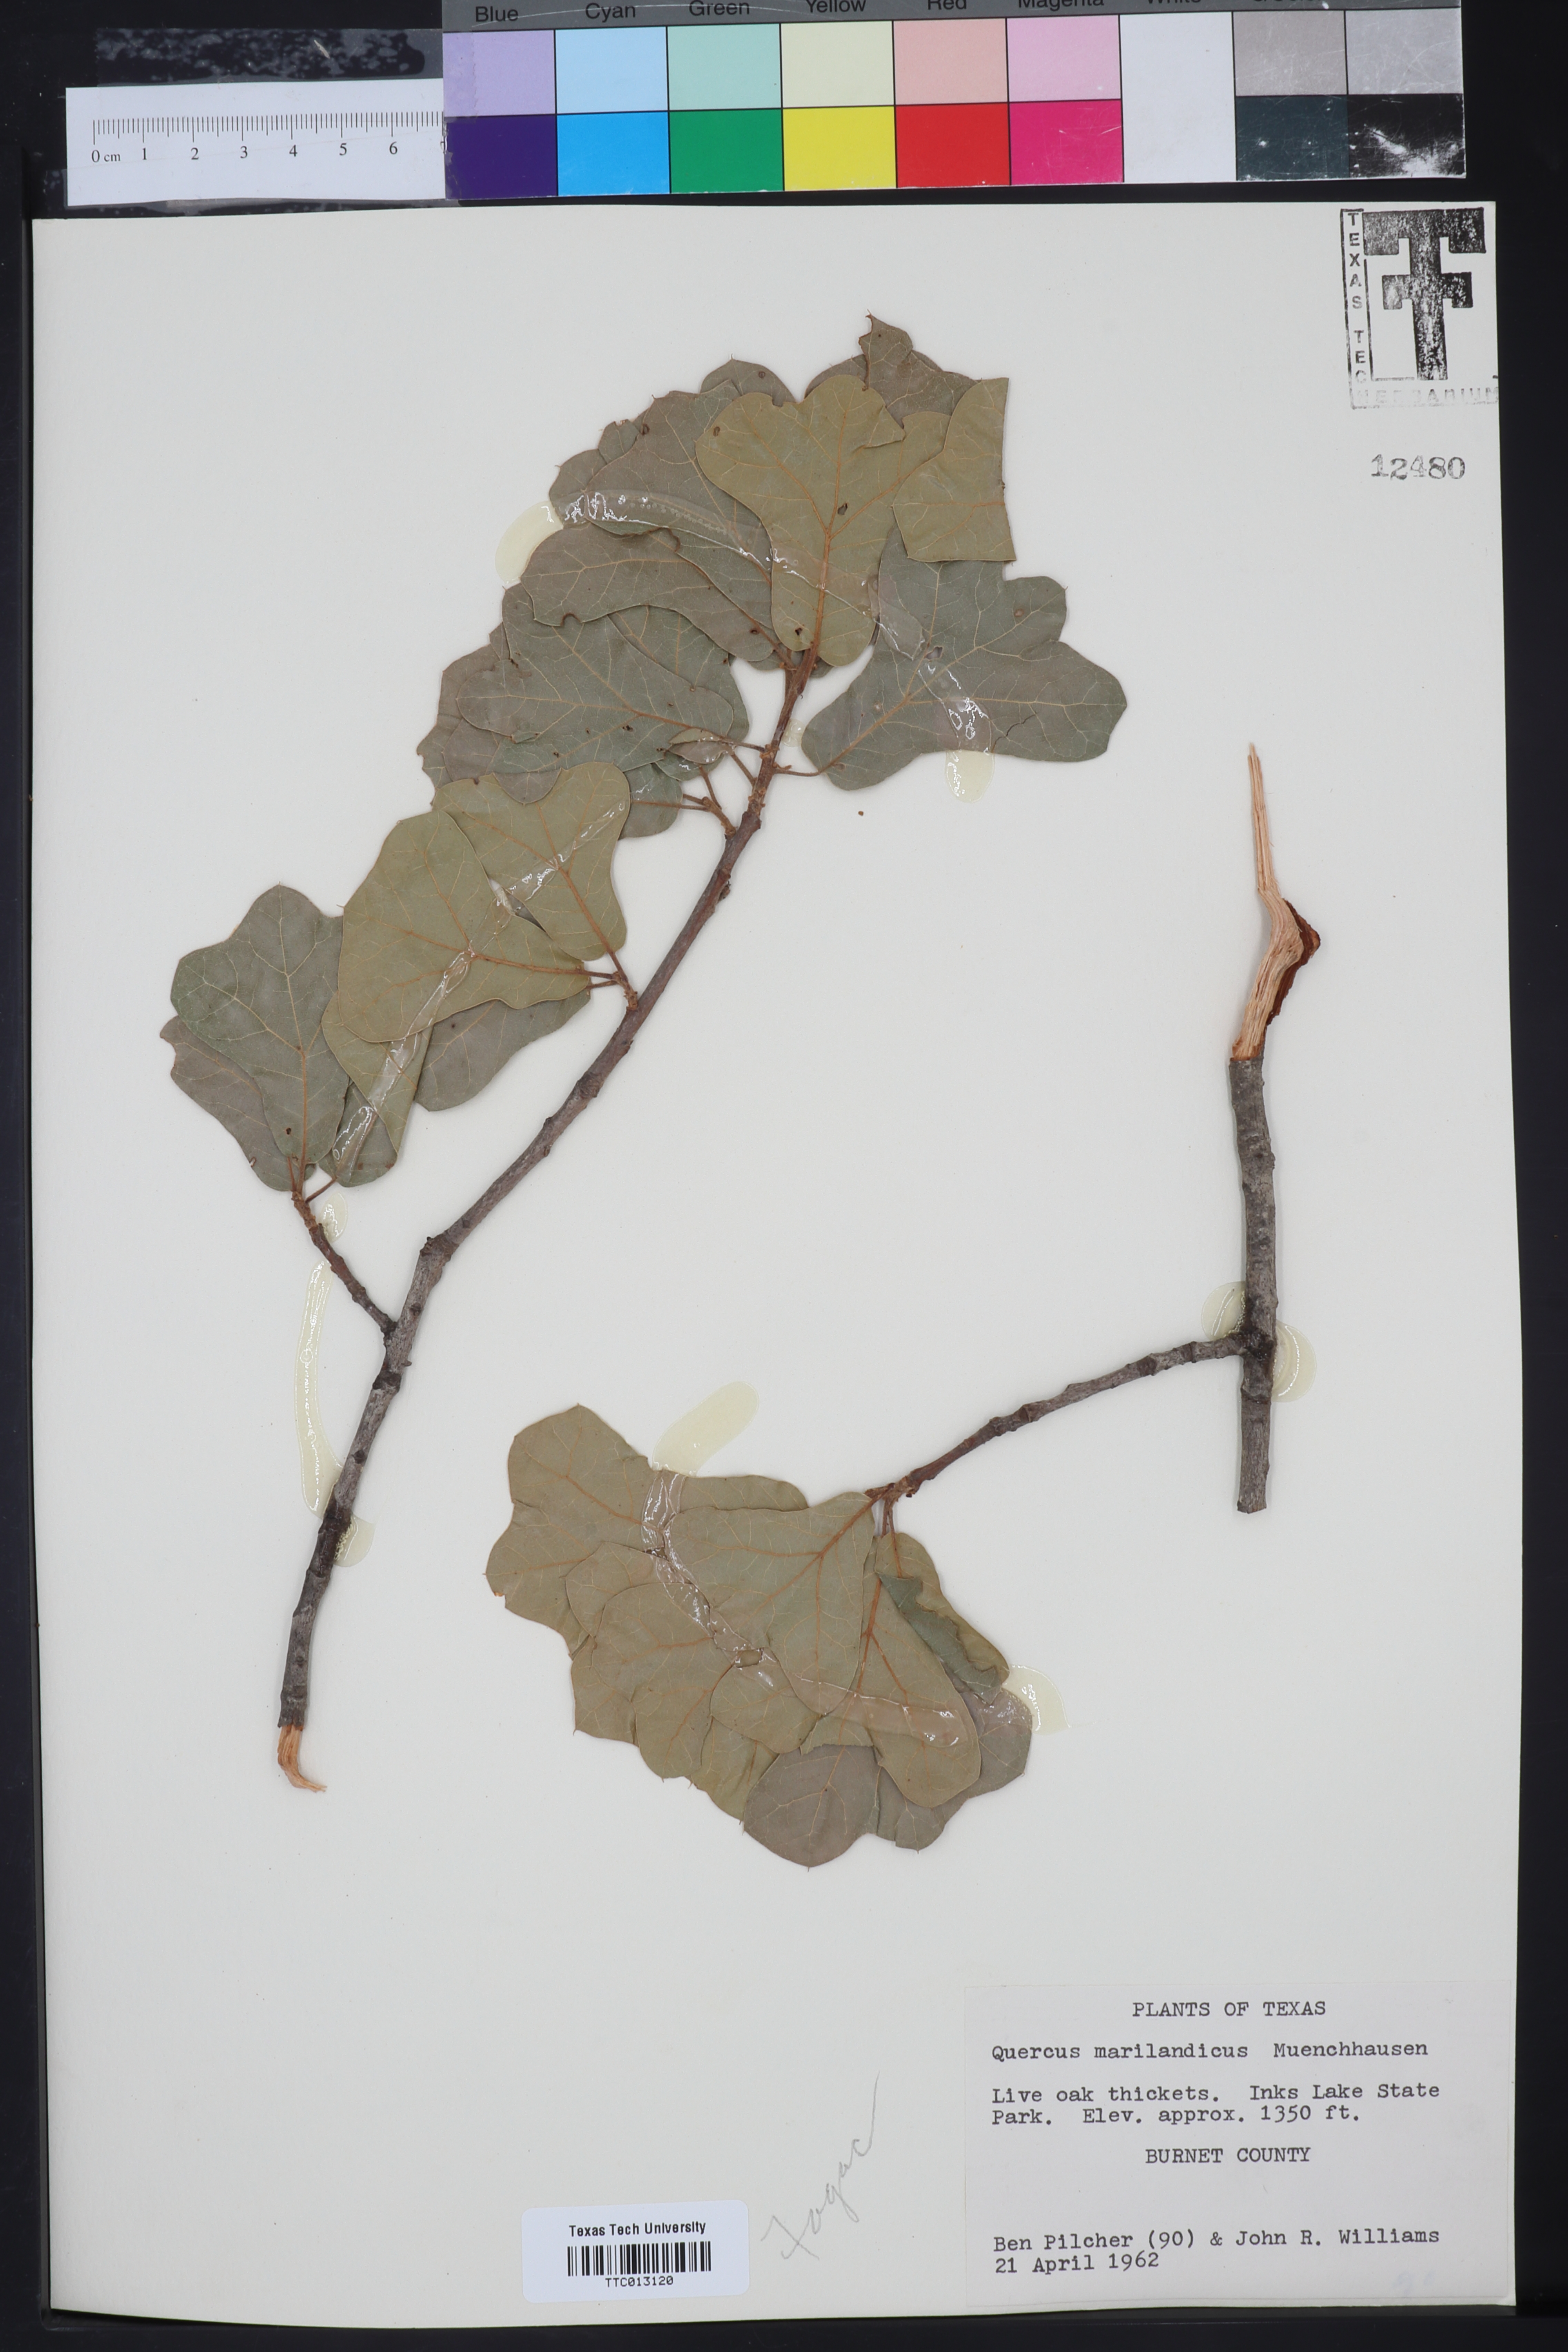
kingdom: Plantae
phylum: Tracheophyta
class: Magnoliopsida
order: Fagales
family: Fagaceae
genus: Quercus
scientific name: Quercus marilandica
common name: Blackjack oak
